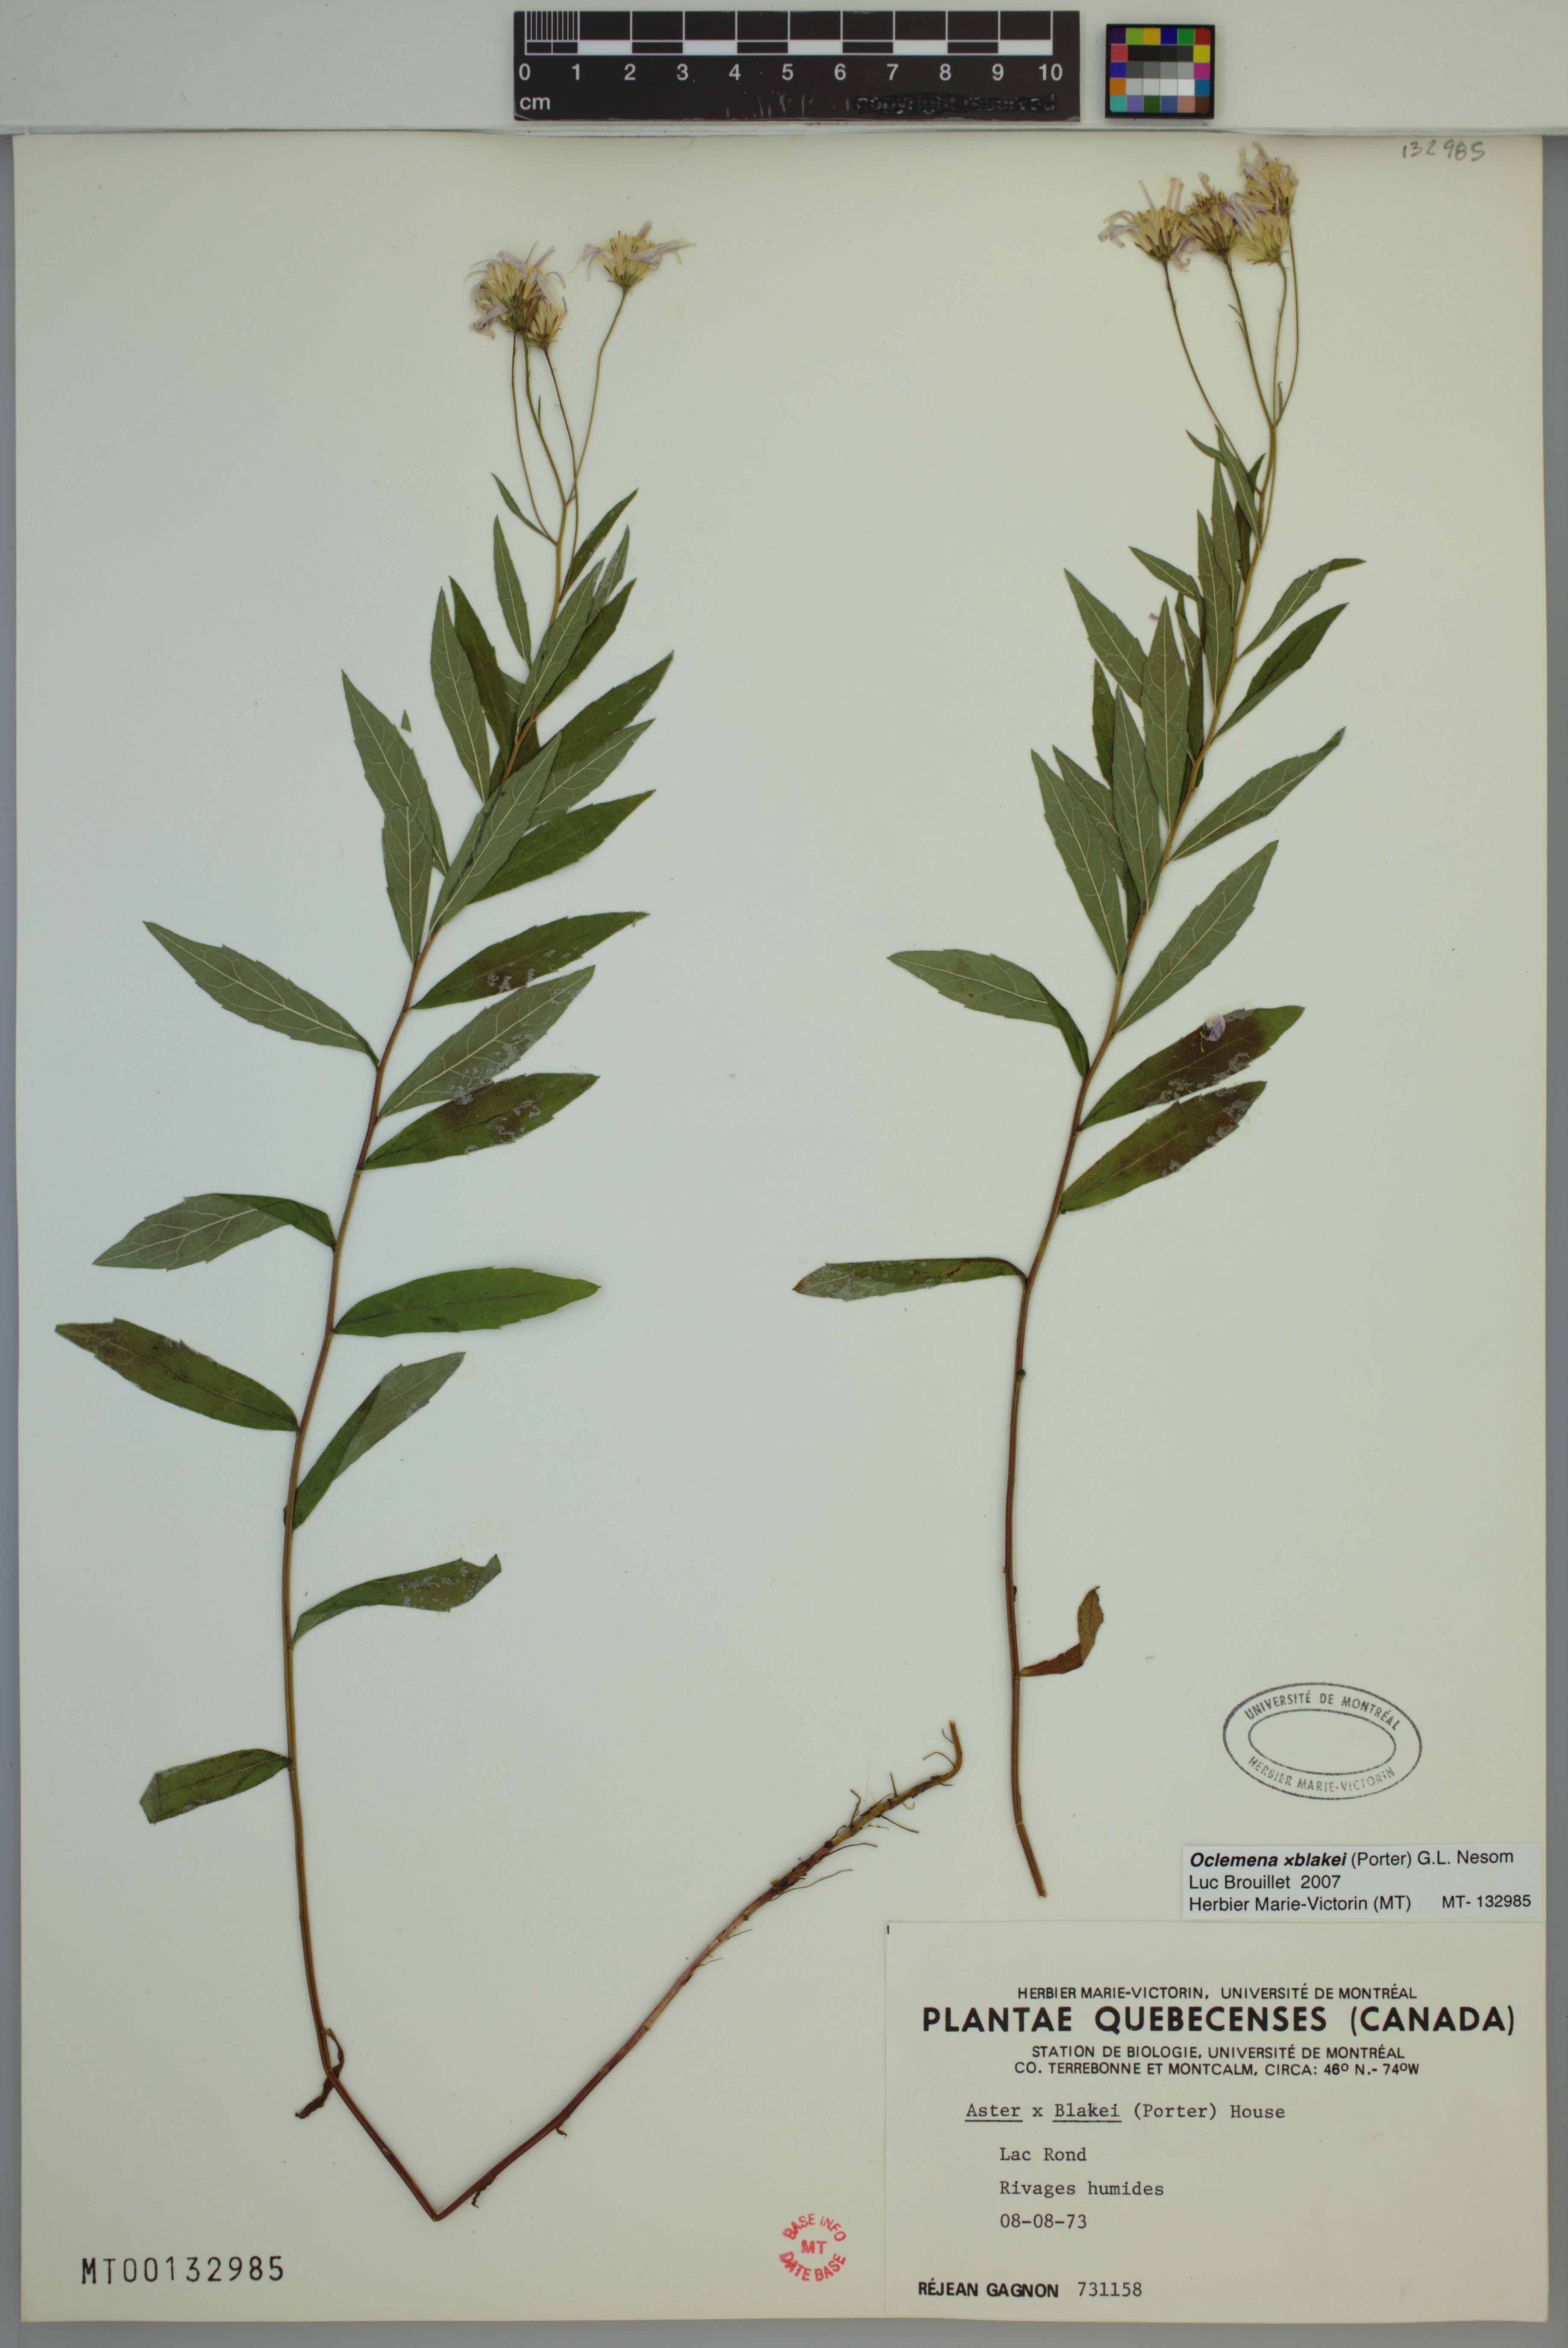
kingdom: Plantae
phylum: Tracheophyta
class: Magnoliopsida
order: Asterales
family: Asteraceae
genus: Oclemena
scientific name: Oclemena blakei
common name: Blake's aster
